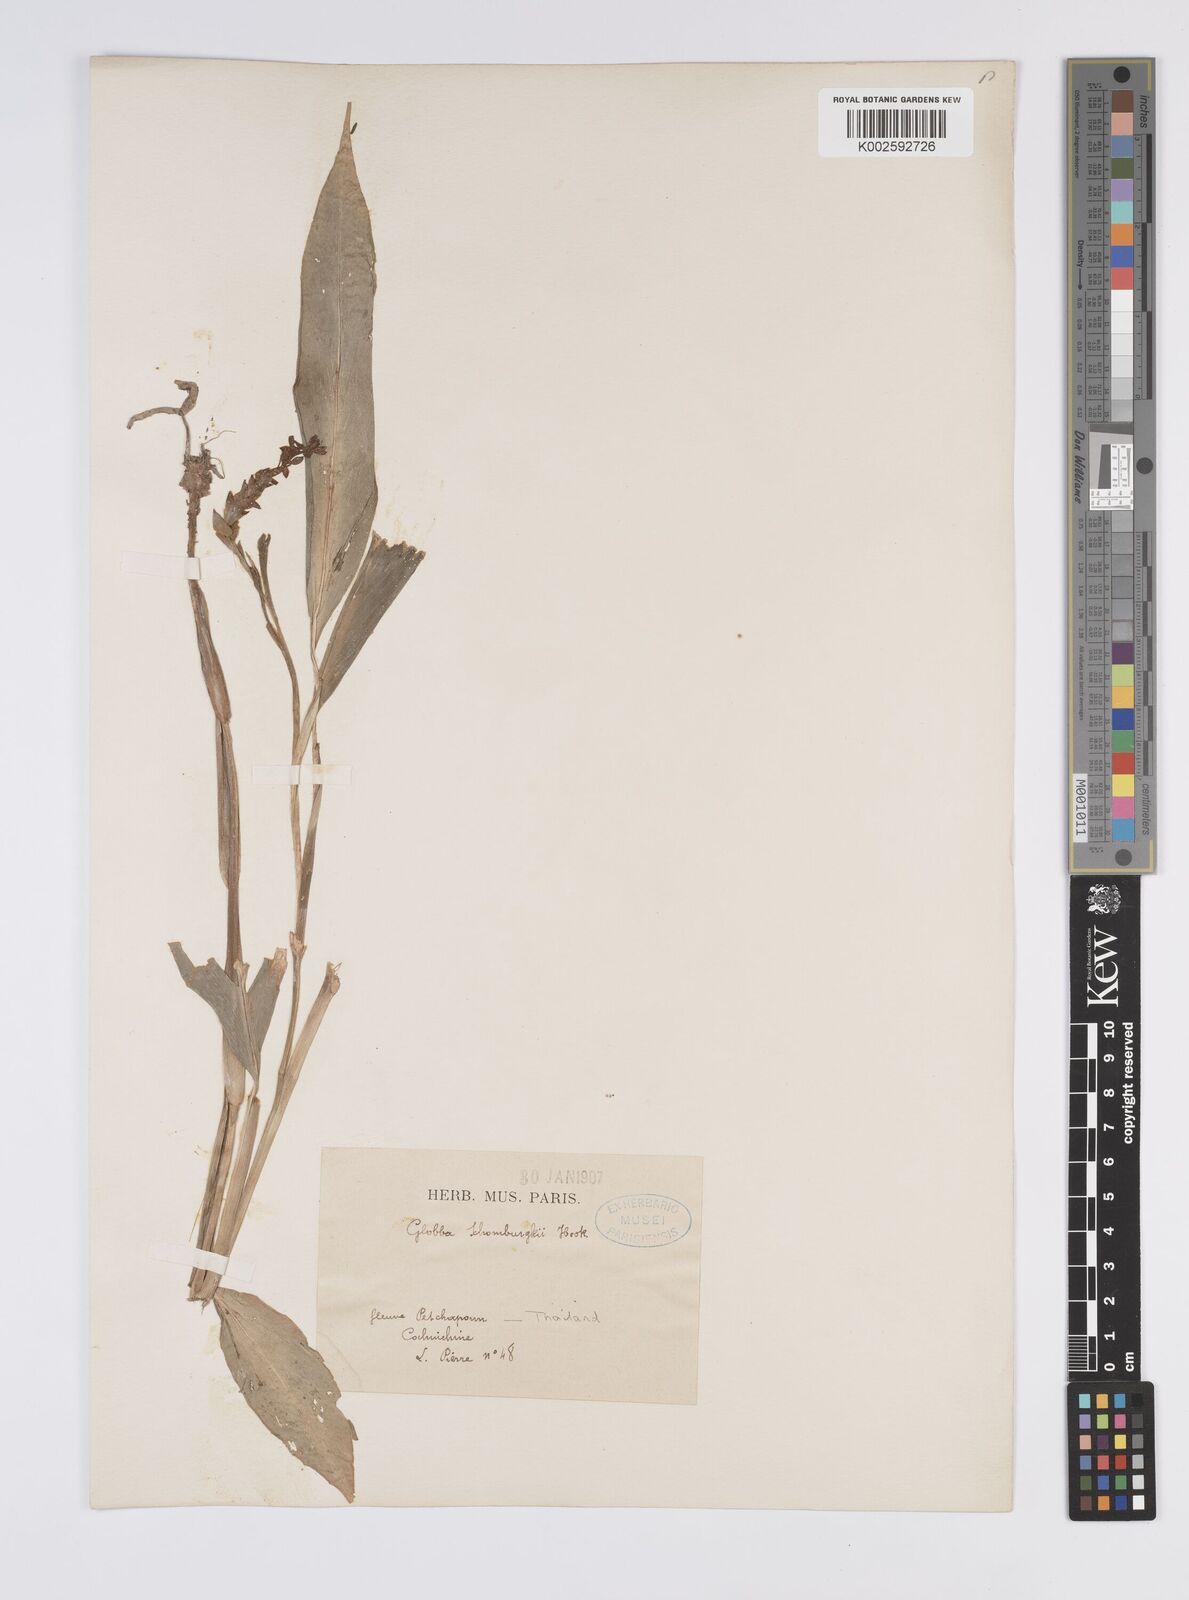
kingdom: Plantae
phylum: Tracheophyta
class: Liliopsida
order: Zingiberales
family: Zingiberaceae
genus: Globba
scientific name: Globba schomburgkii
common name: Dancing girl ginger
